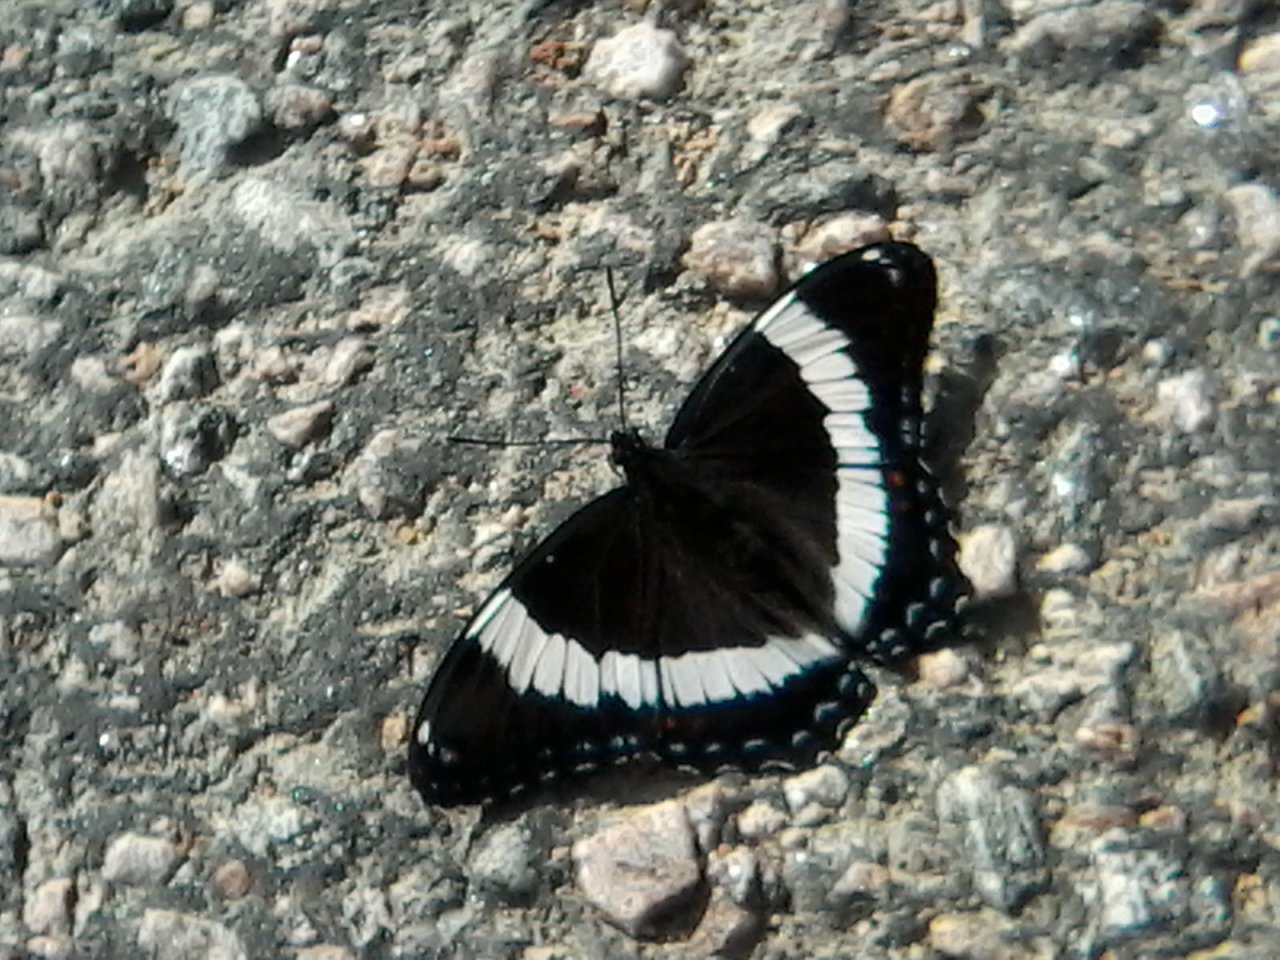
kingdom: Animalia
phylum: Arthropoda
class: Insecta
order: Lepidoptera
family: Nymphalidae
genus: Limenitis
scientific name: Limenitis arthemis
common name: Red-spotted Admiral
